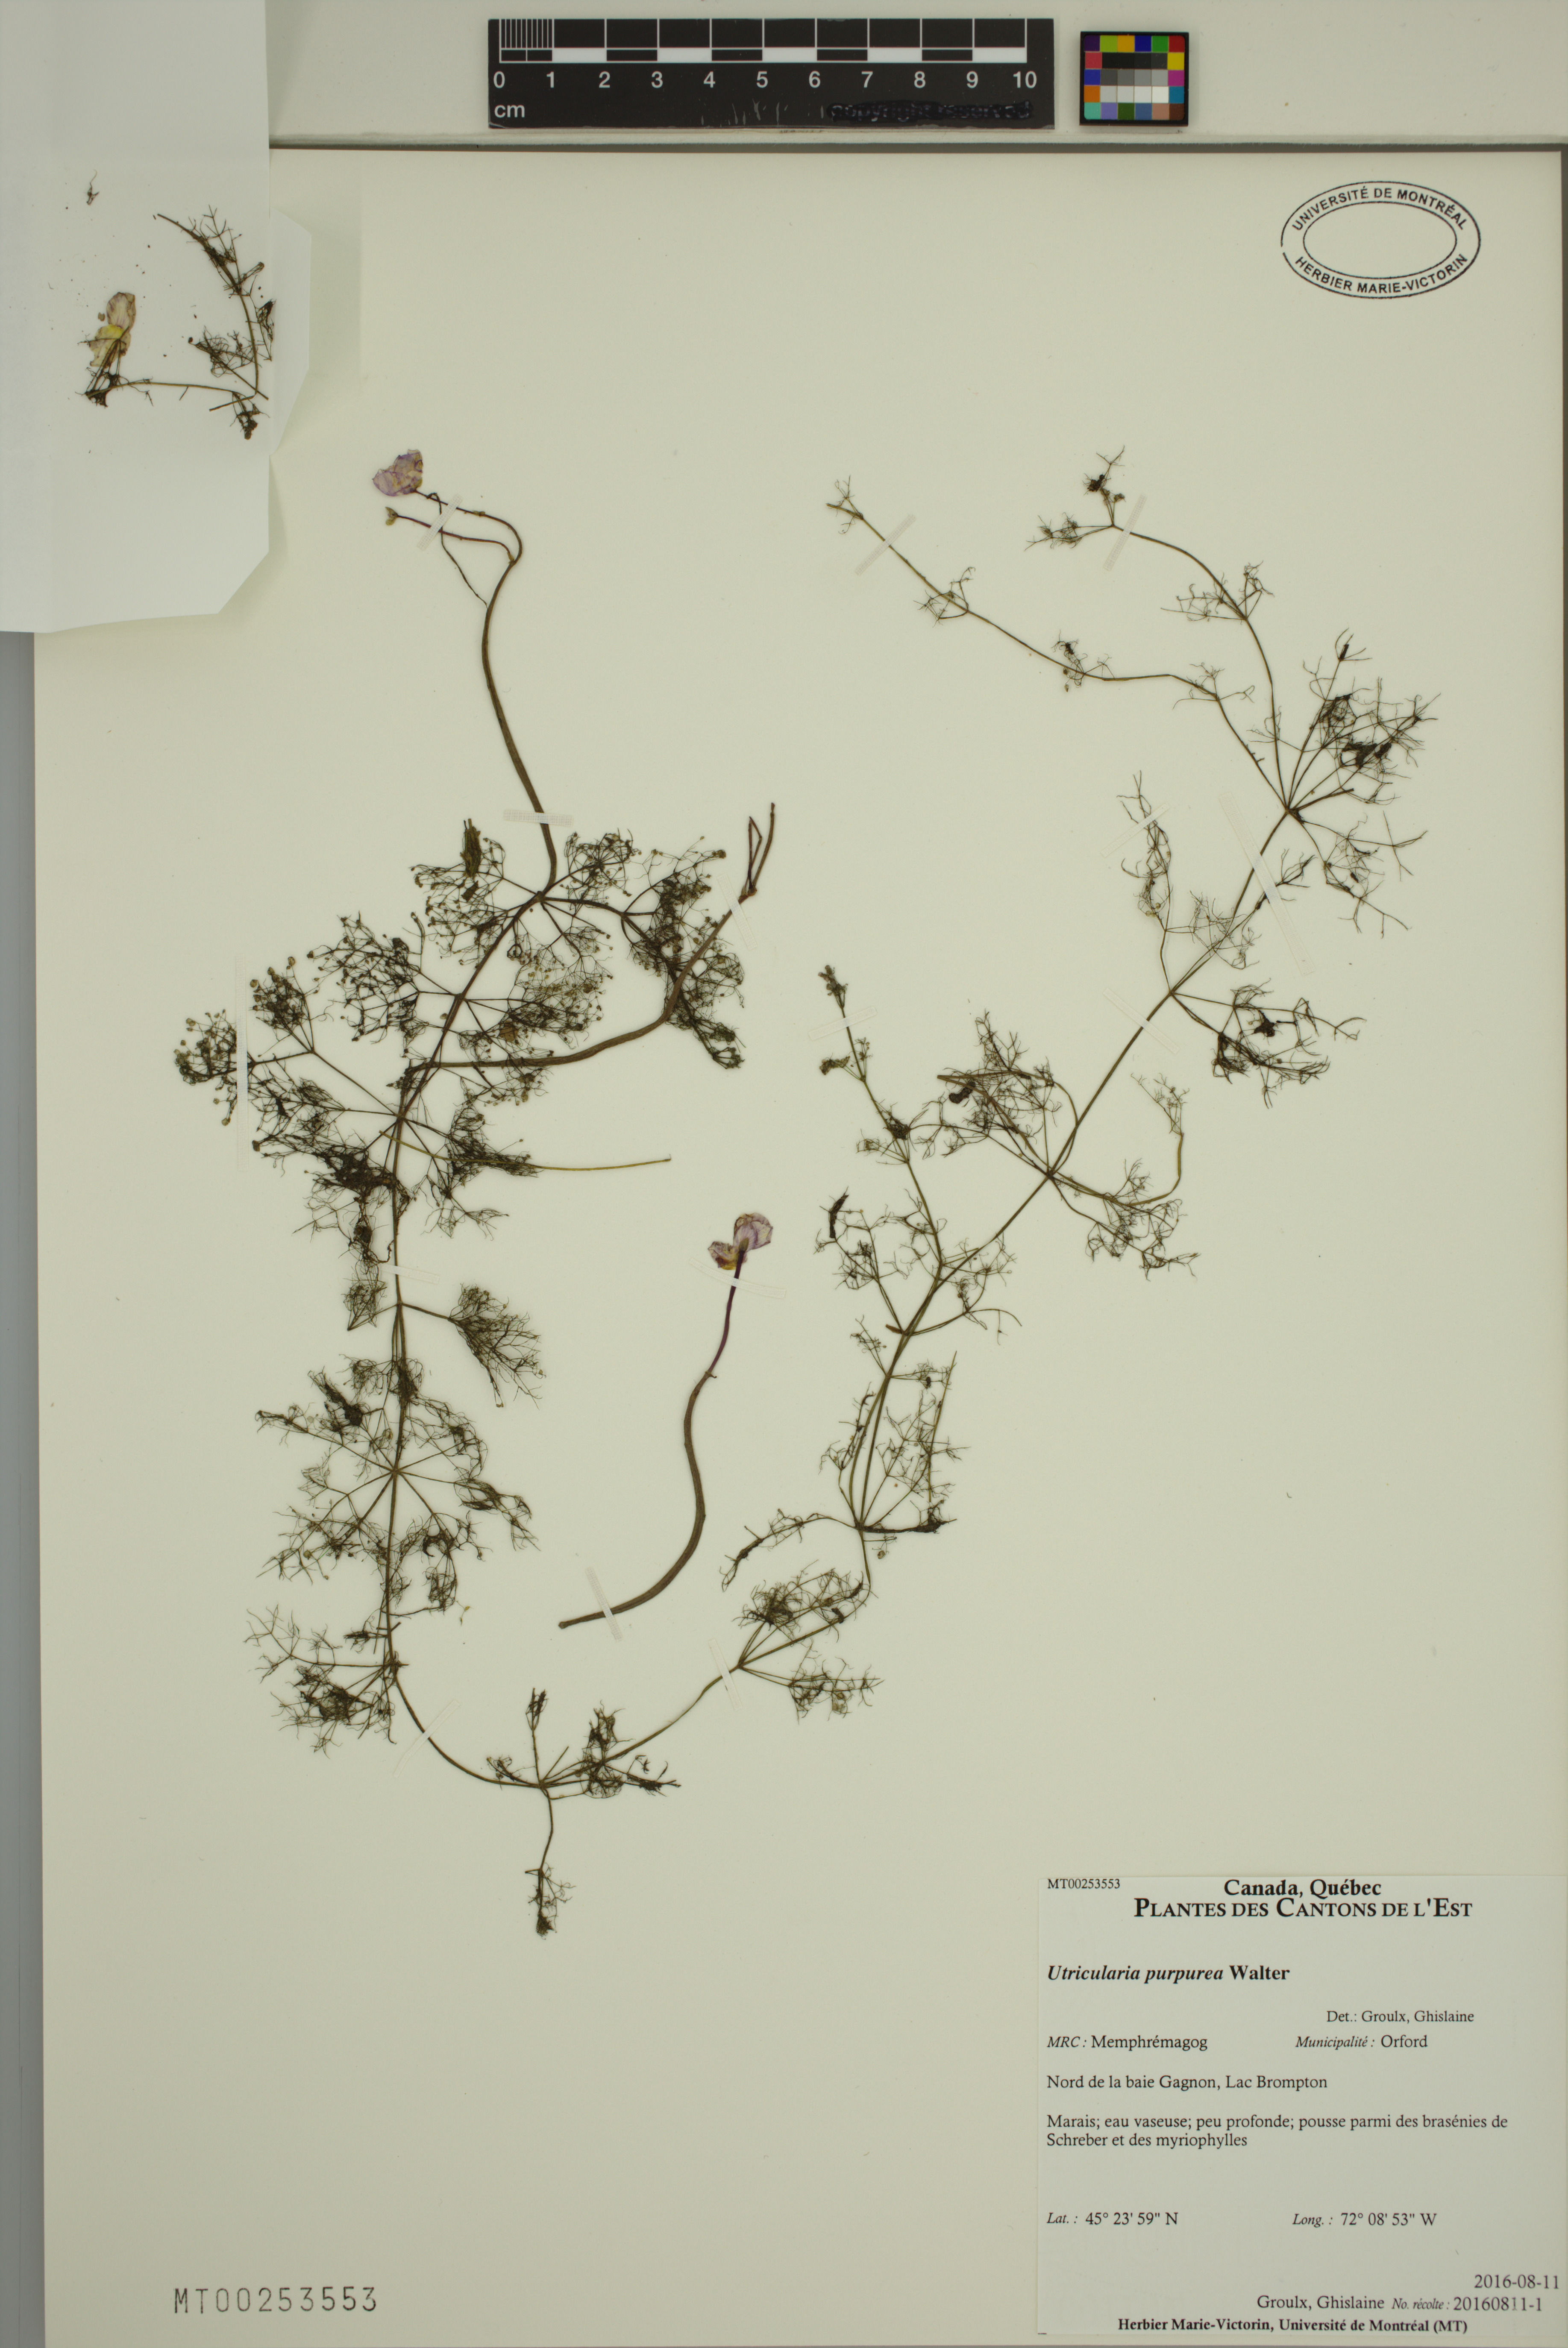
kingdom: Plantae
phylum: Tracheophyta
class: Magnoliopsida
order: Lamiales
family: Lentibulariaceae
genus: Utricularia
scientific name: Utricularia purpurea
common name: Eastern purple bladderwort
